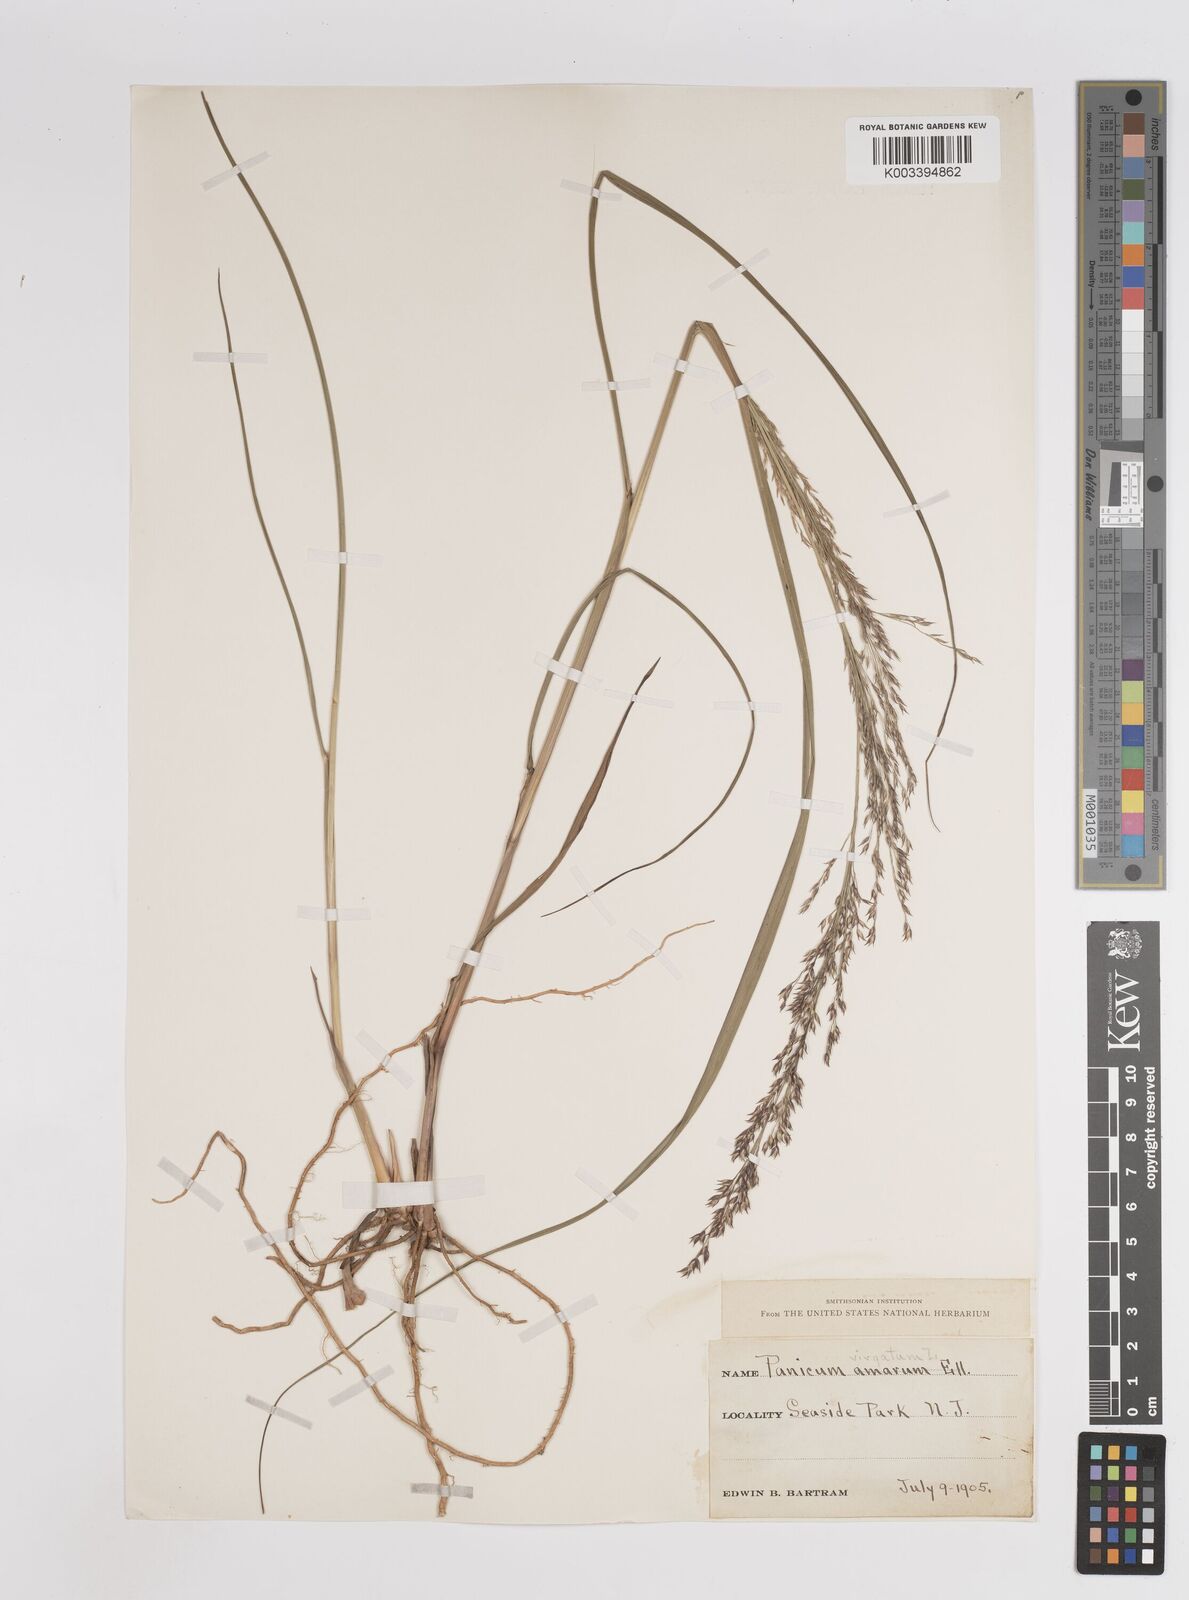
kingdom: Plantae
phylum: Tracheophyta
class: Liliopsida
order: Poales
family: Poaceae
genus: Panicum
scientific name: Panicum virgatum
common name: Switchgrass
